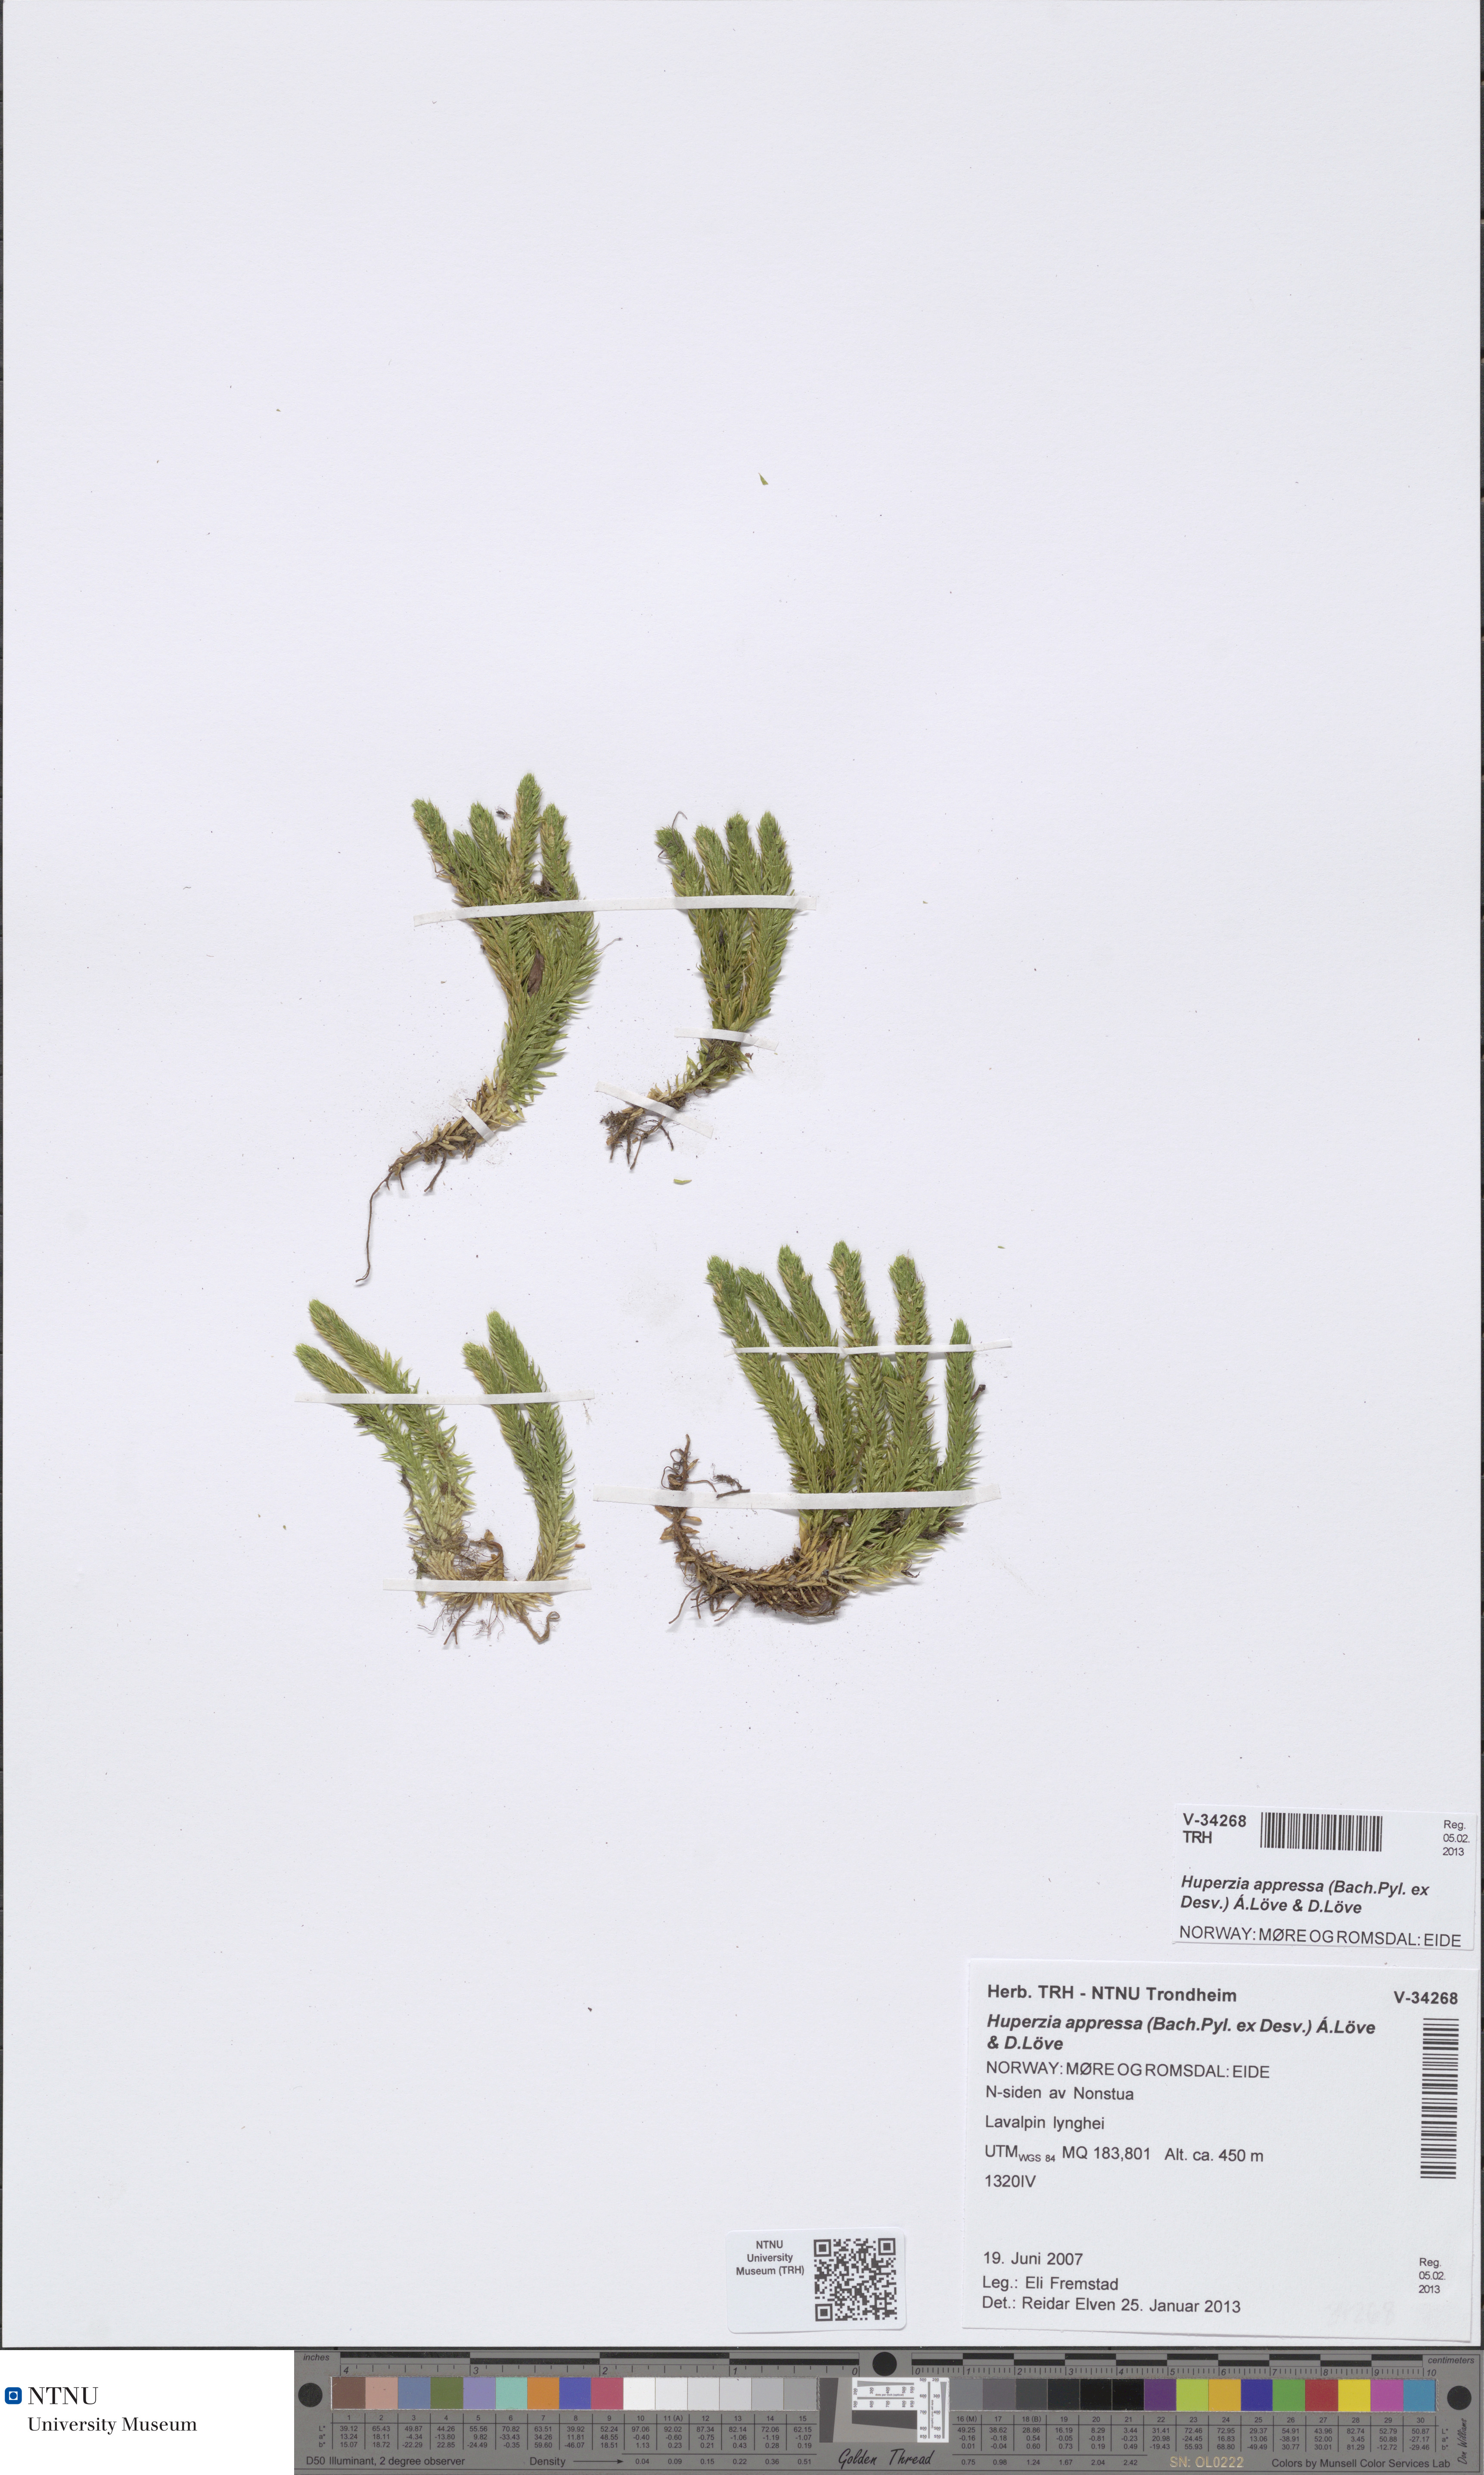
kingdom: Plantae
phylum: Tracheophyta
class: Lycopodiopsida
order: Lycopodiales
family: Lycopodiaceae
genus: Huperzia
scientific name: Huperzia selago
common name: Northern firmoss
